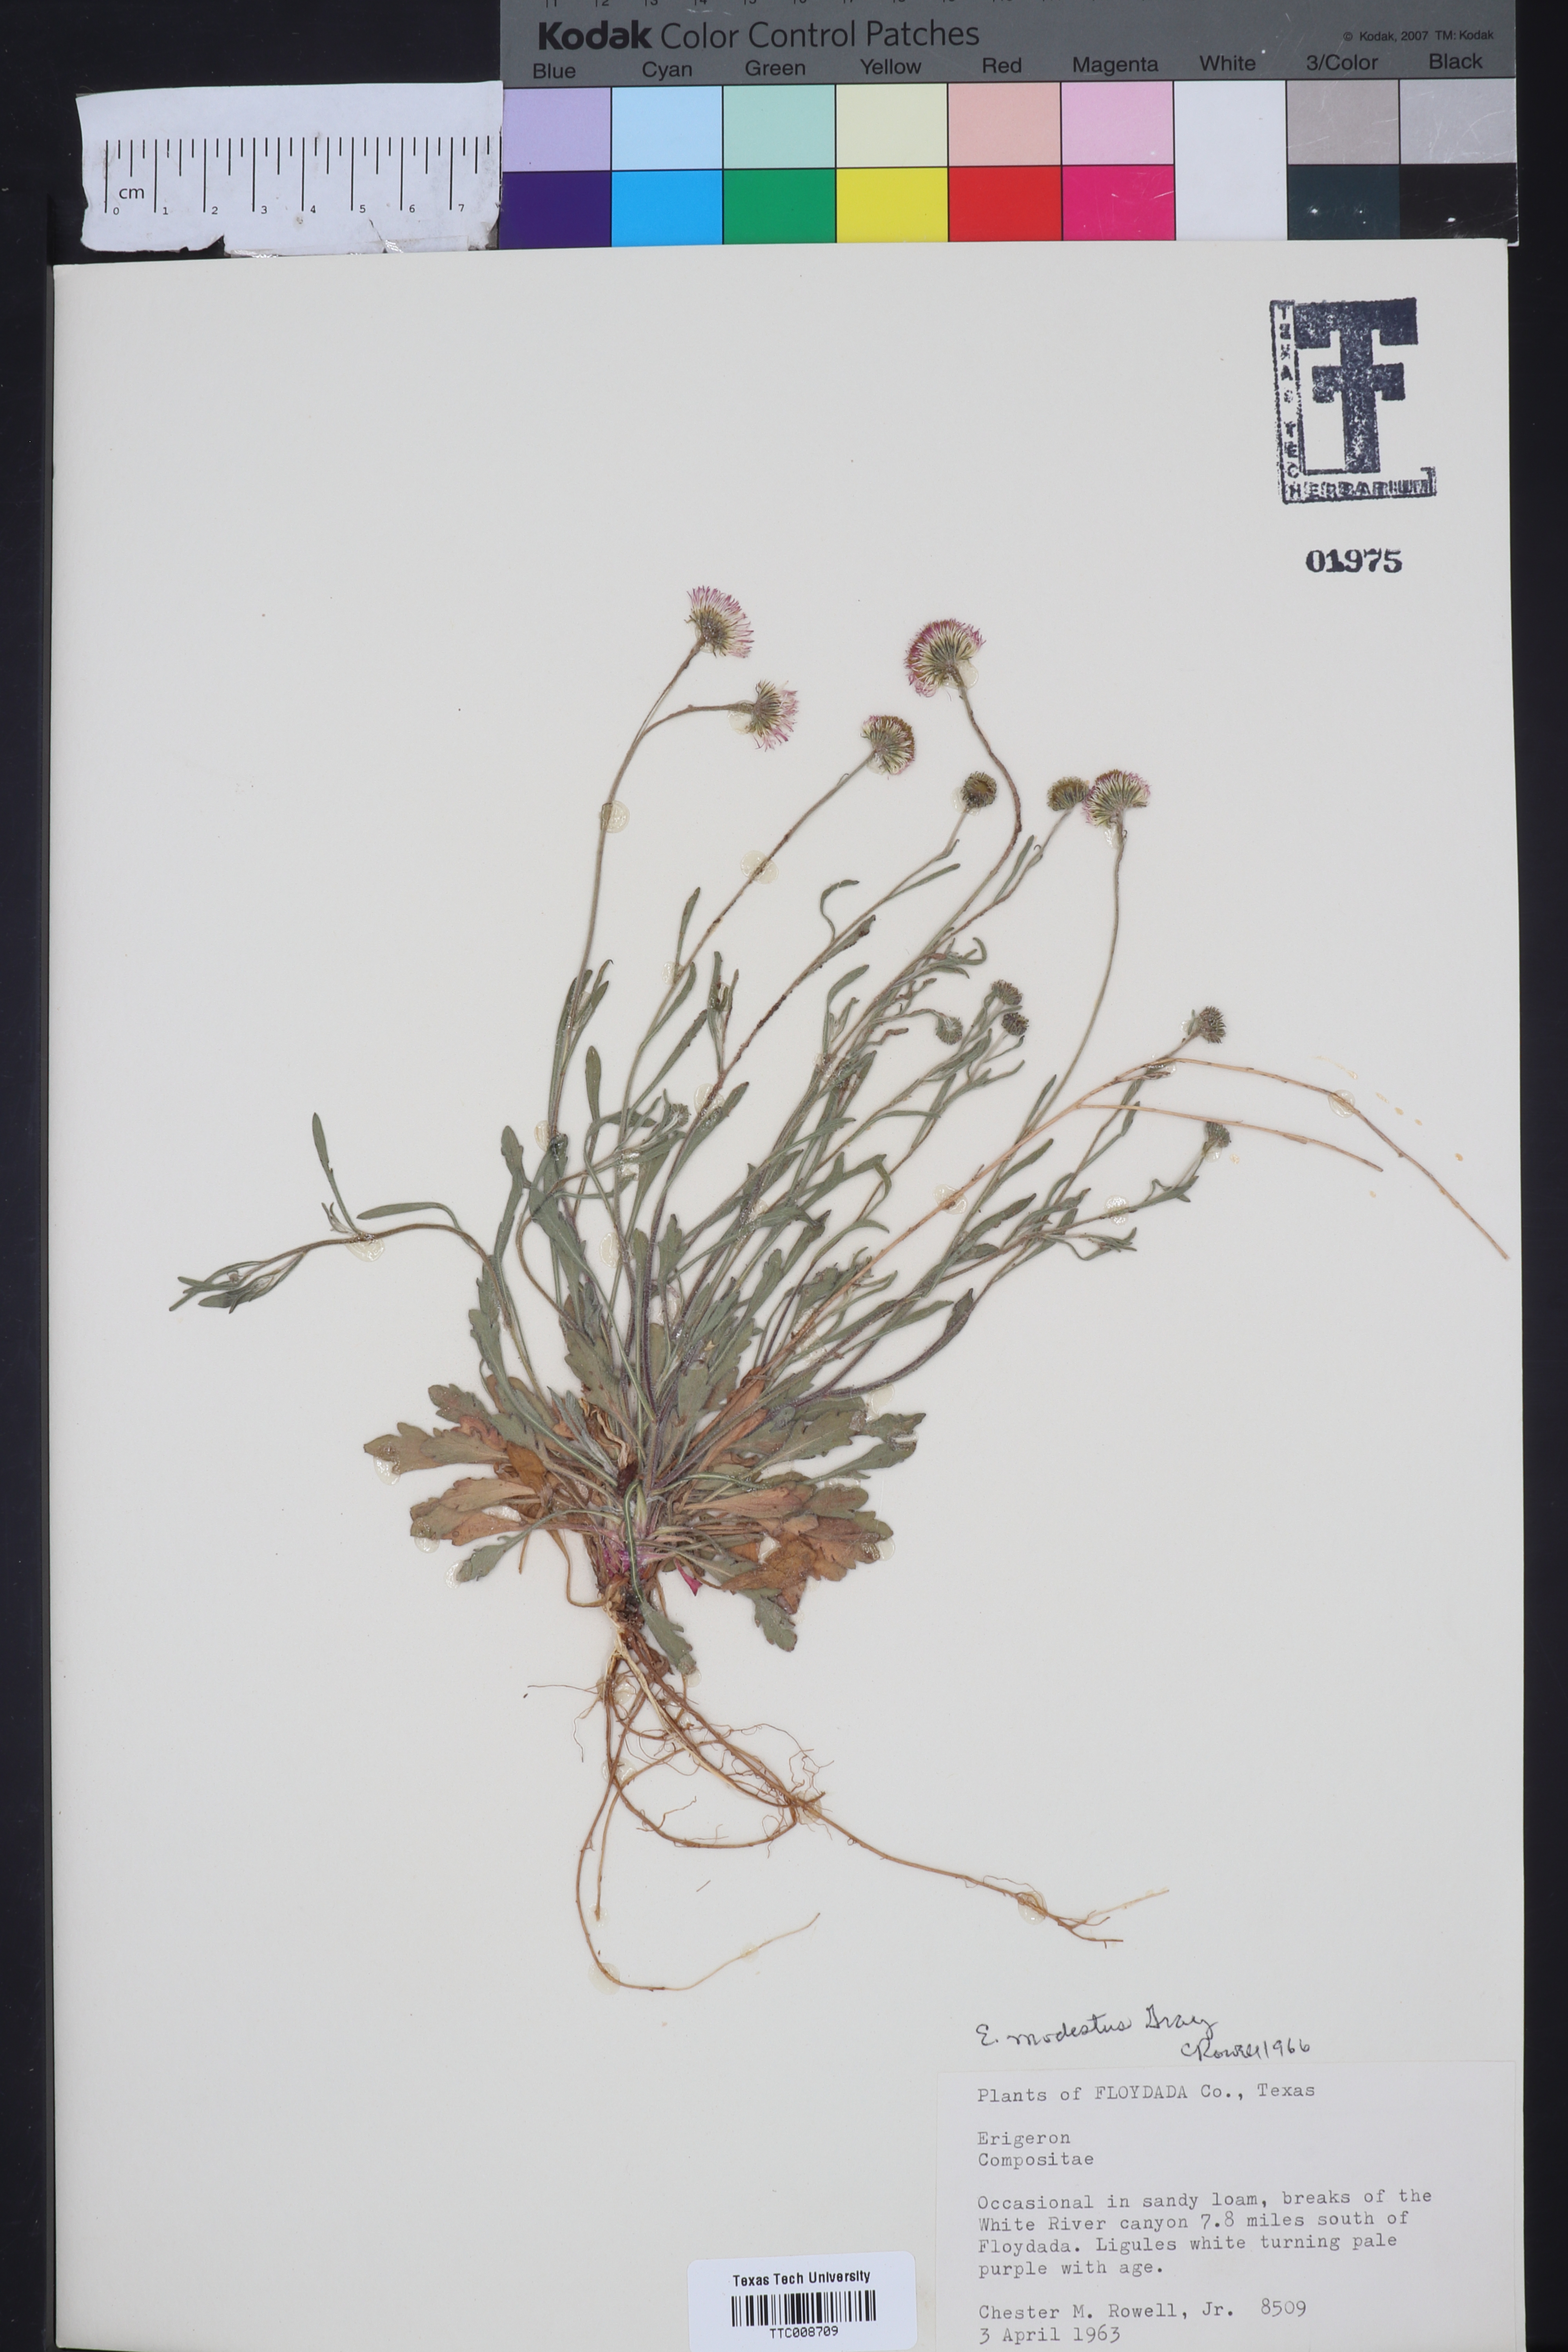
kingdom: Plantae
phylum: Tracheophyta
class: Magnoliopsida
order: Asterales
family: Asteraceae
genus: Erigeron
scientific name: Erigeron modestus
